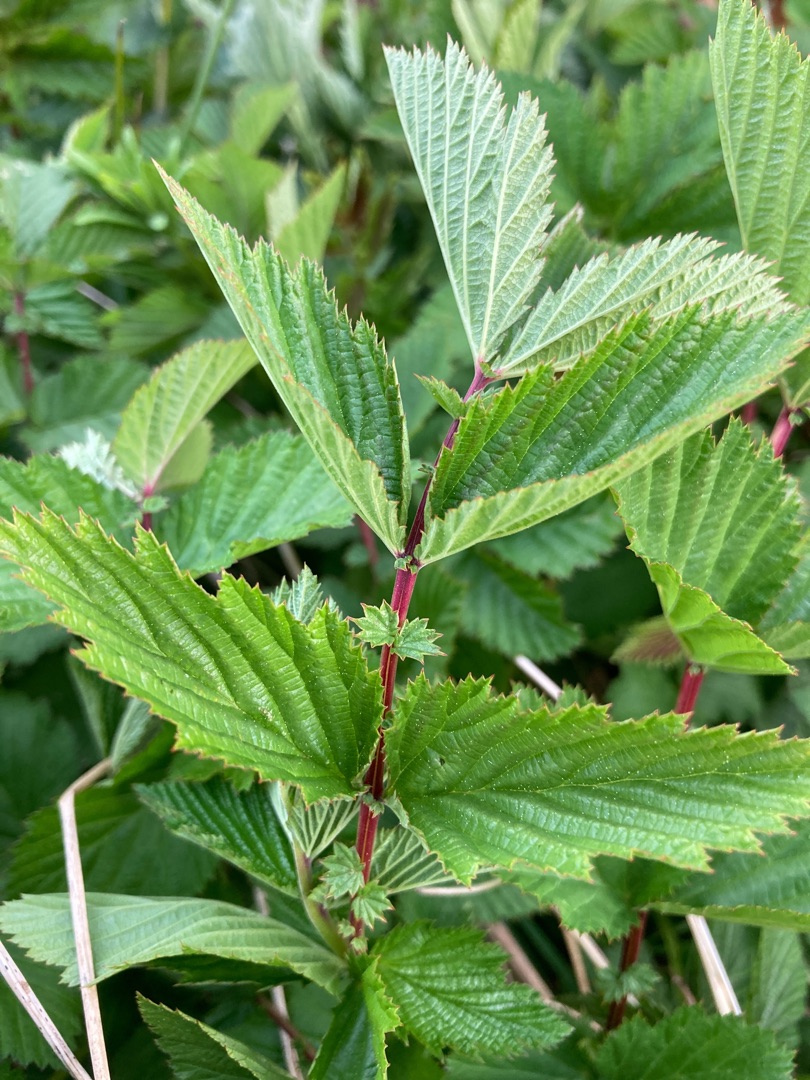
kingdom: Plantae
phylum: Tracheophyta
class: Magnoliopsida
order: Rosales
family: Rosaceae
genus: Filipendula
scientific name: Filipendula ulmaria
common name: Almindelig mjødurt
